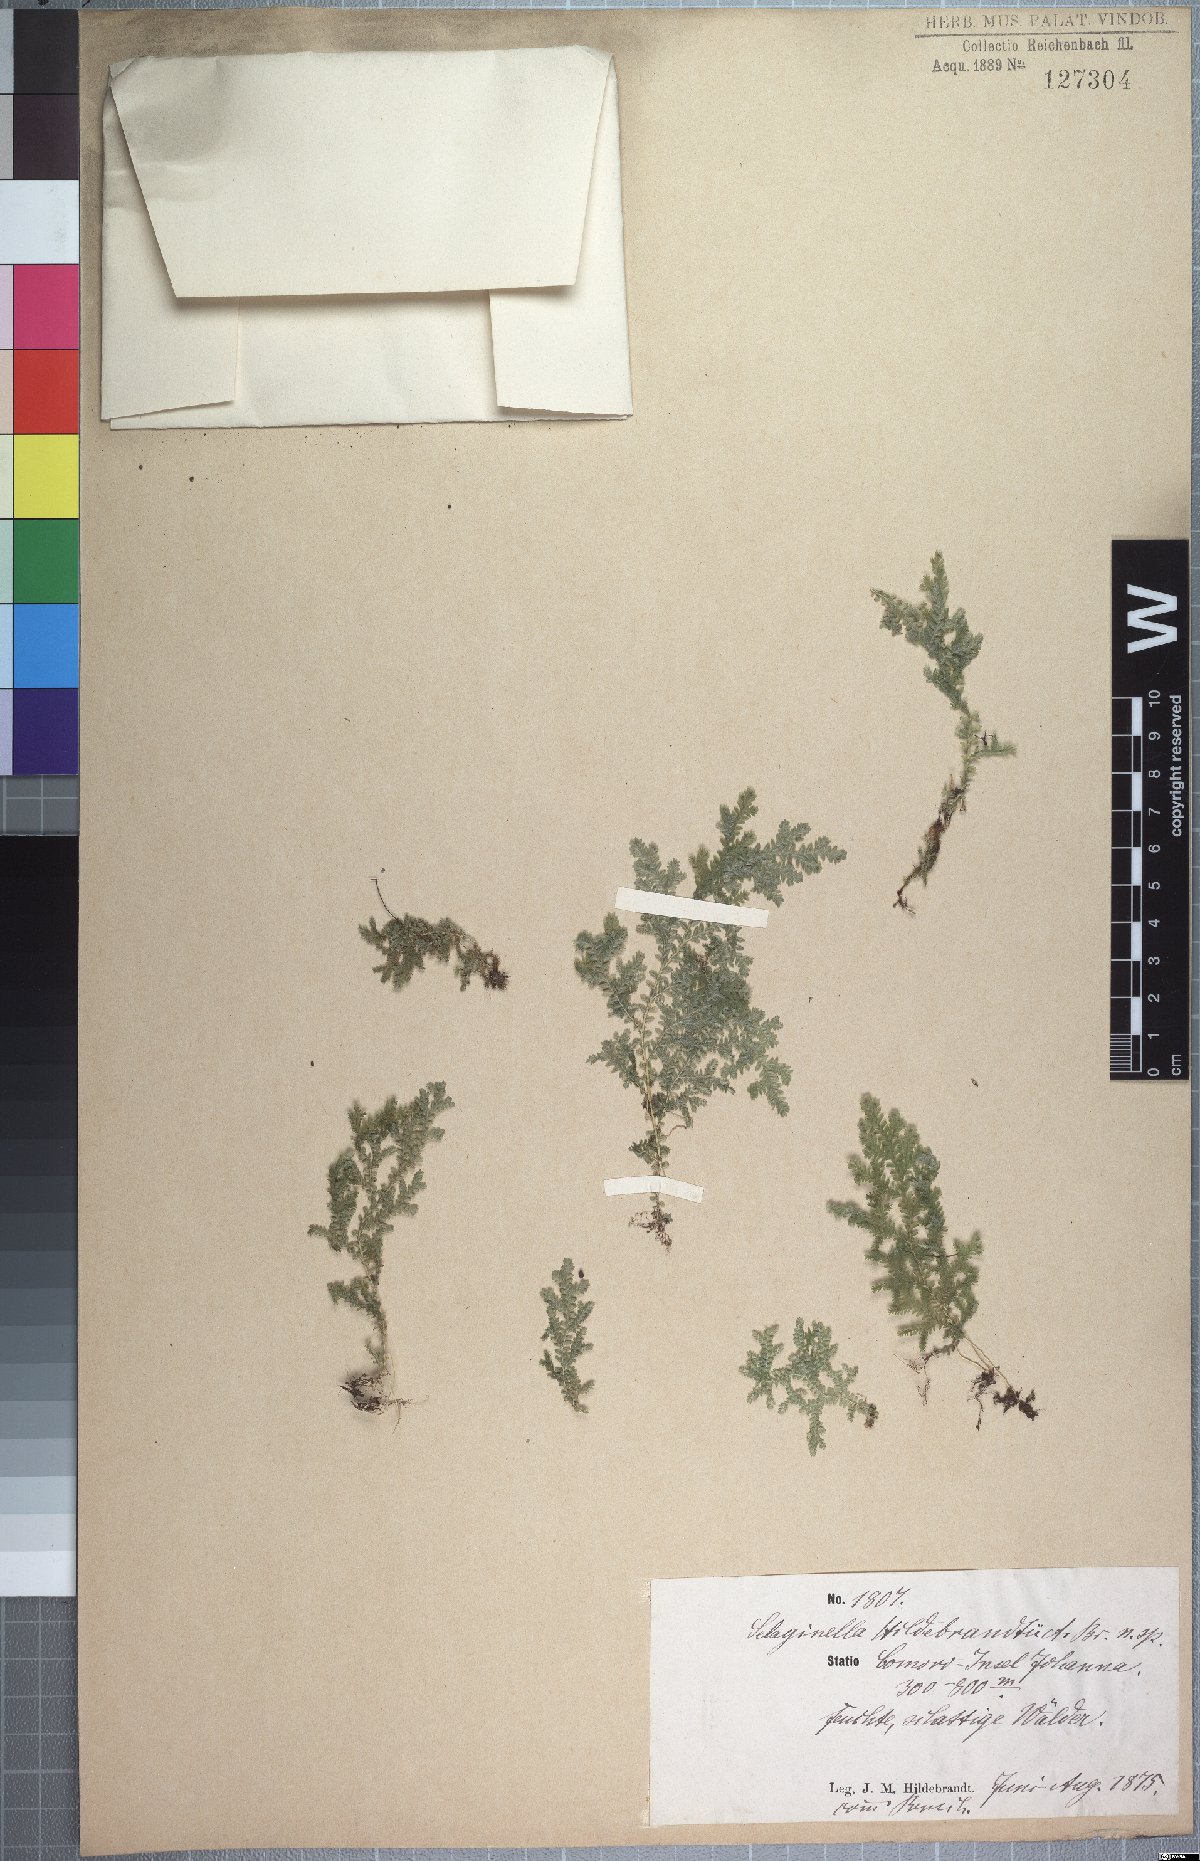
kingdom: Plantae
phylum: Tracheophyta
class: Lycopodiopsida
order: Selaginellales
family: Selaginellaceae
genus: Selaginella
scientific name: Selaginella hildebrandtii
